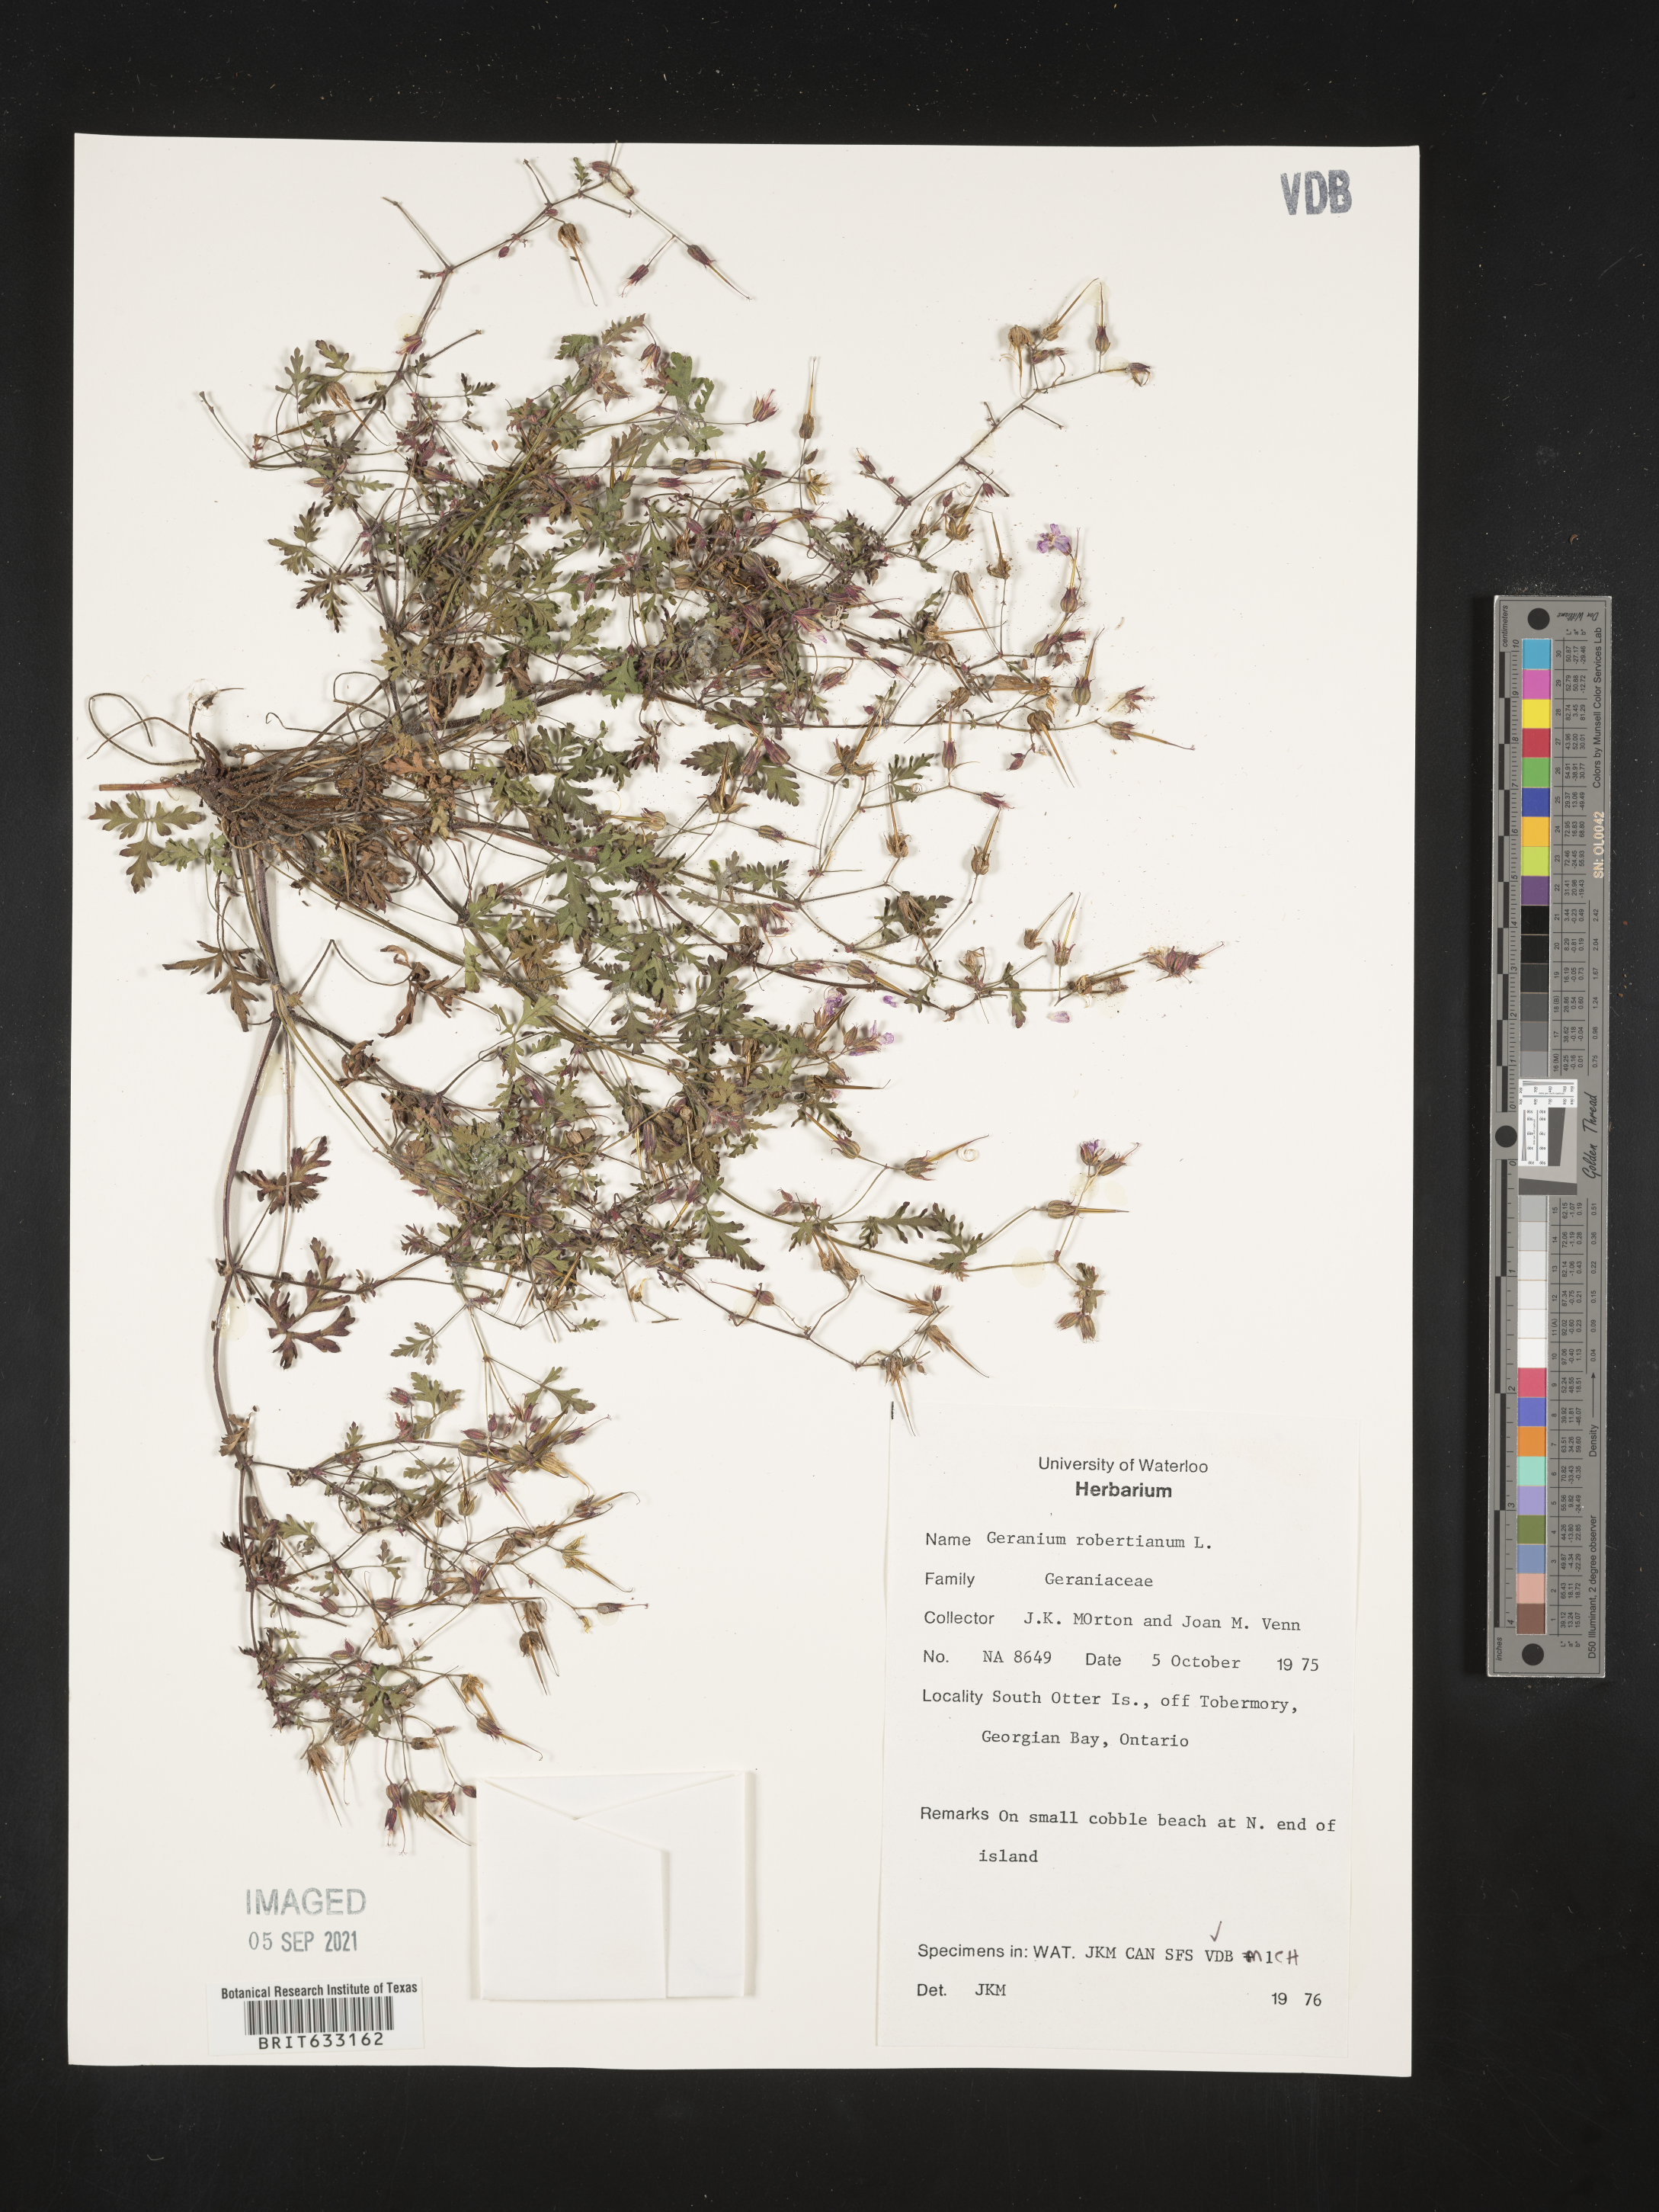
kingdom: Plantae
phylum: Tracheophyta
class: Magnoliopsida
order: Geraniales
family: Geraniaceae
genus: Geranium
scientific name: Geranium
